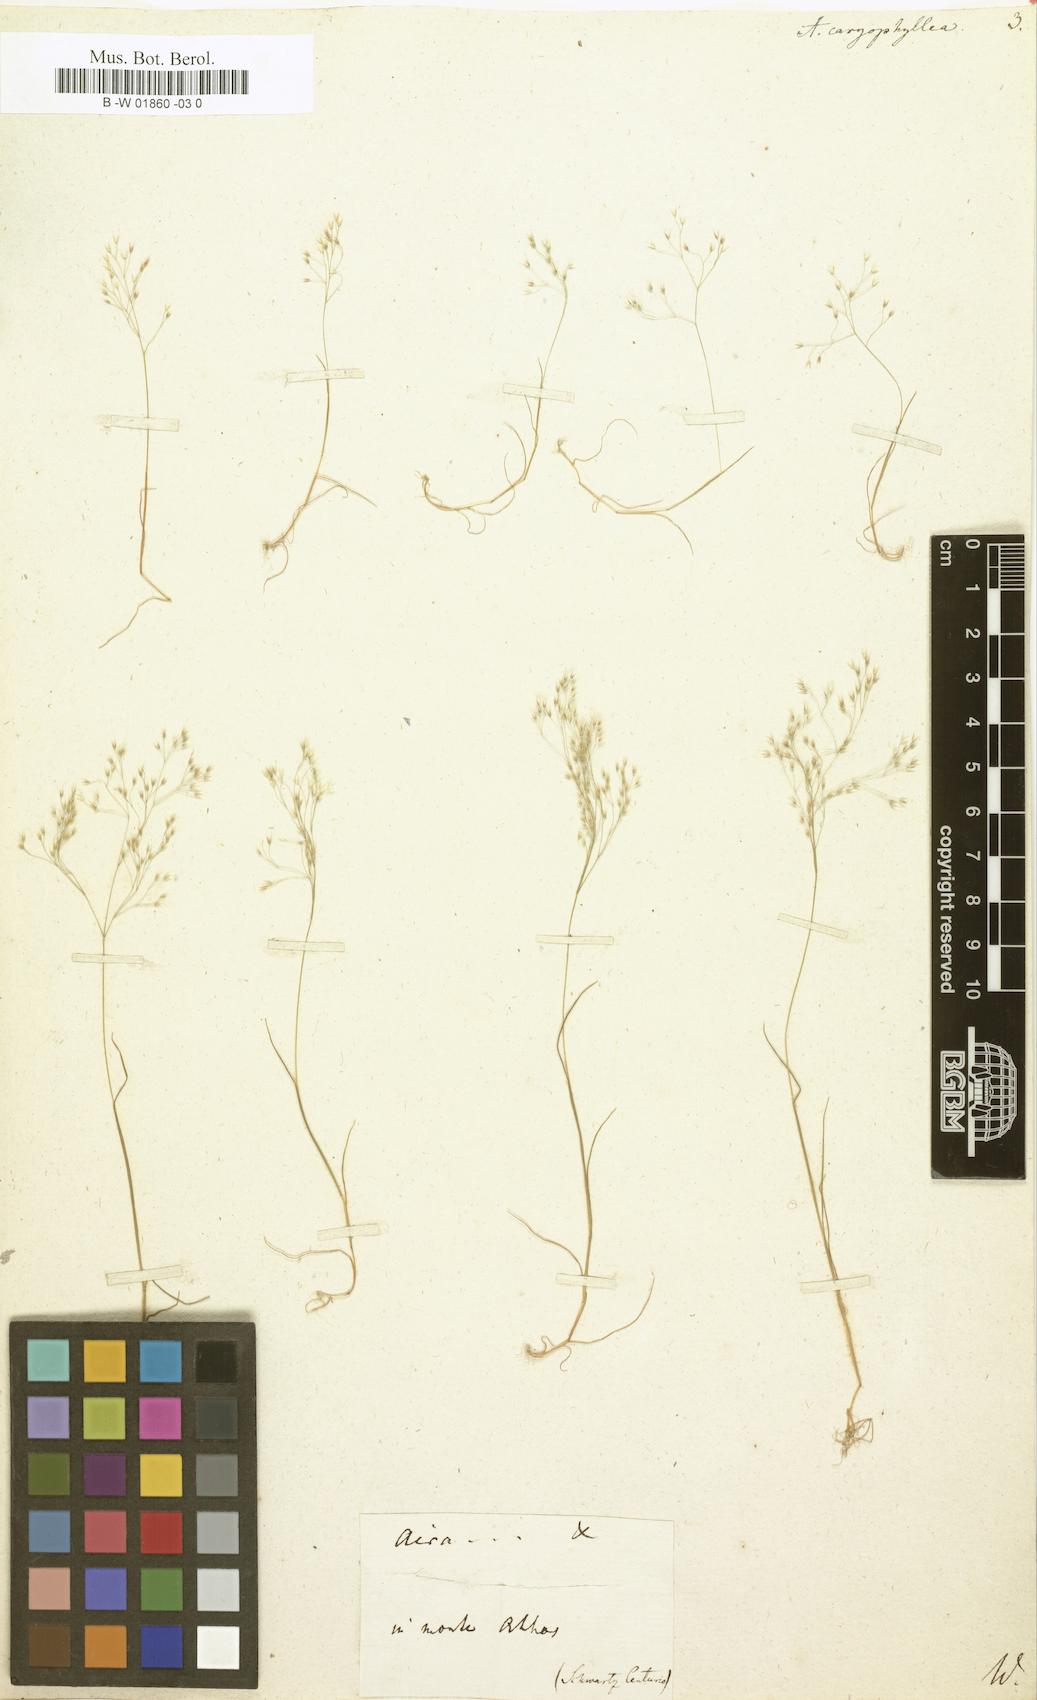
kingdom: Plantae
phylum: Tracheophyta
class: Liliopsida
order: Poales
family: Poaceae
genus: Aira
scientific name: Aira caryophyllea
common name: Silver hairgrass
